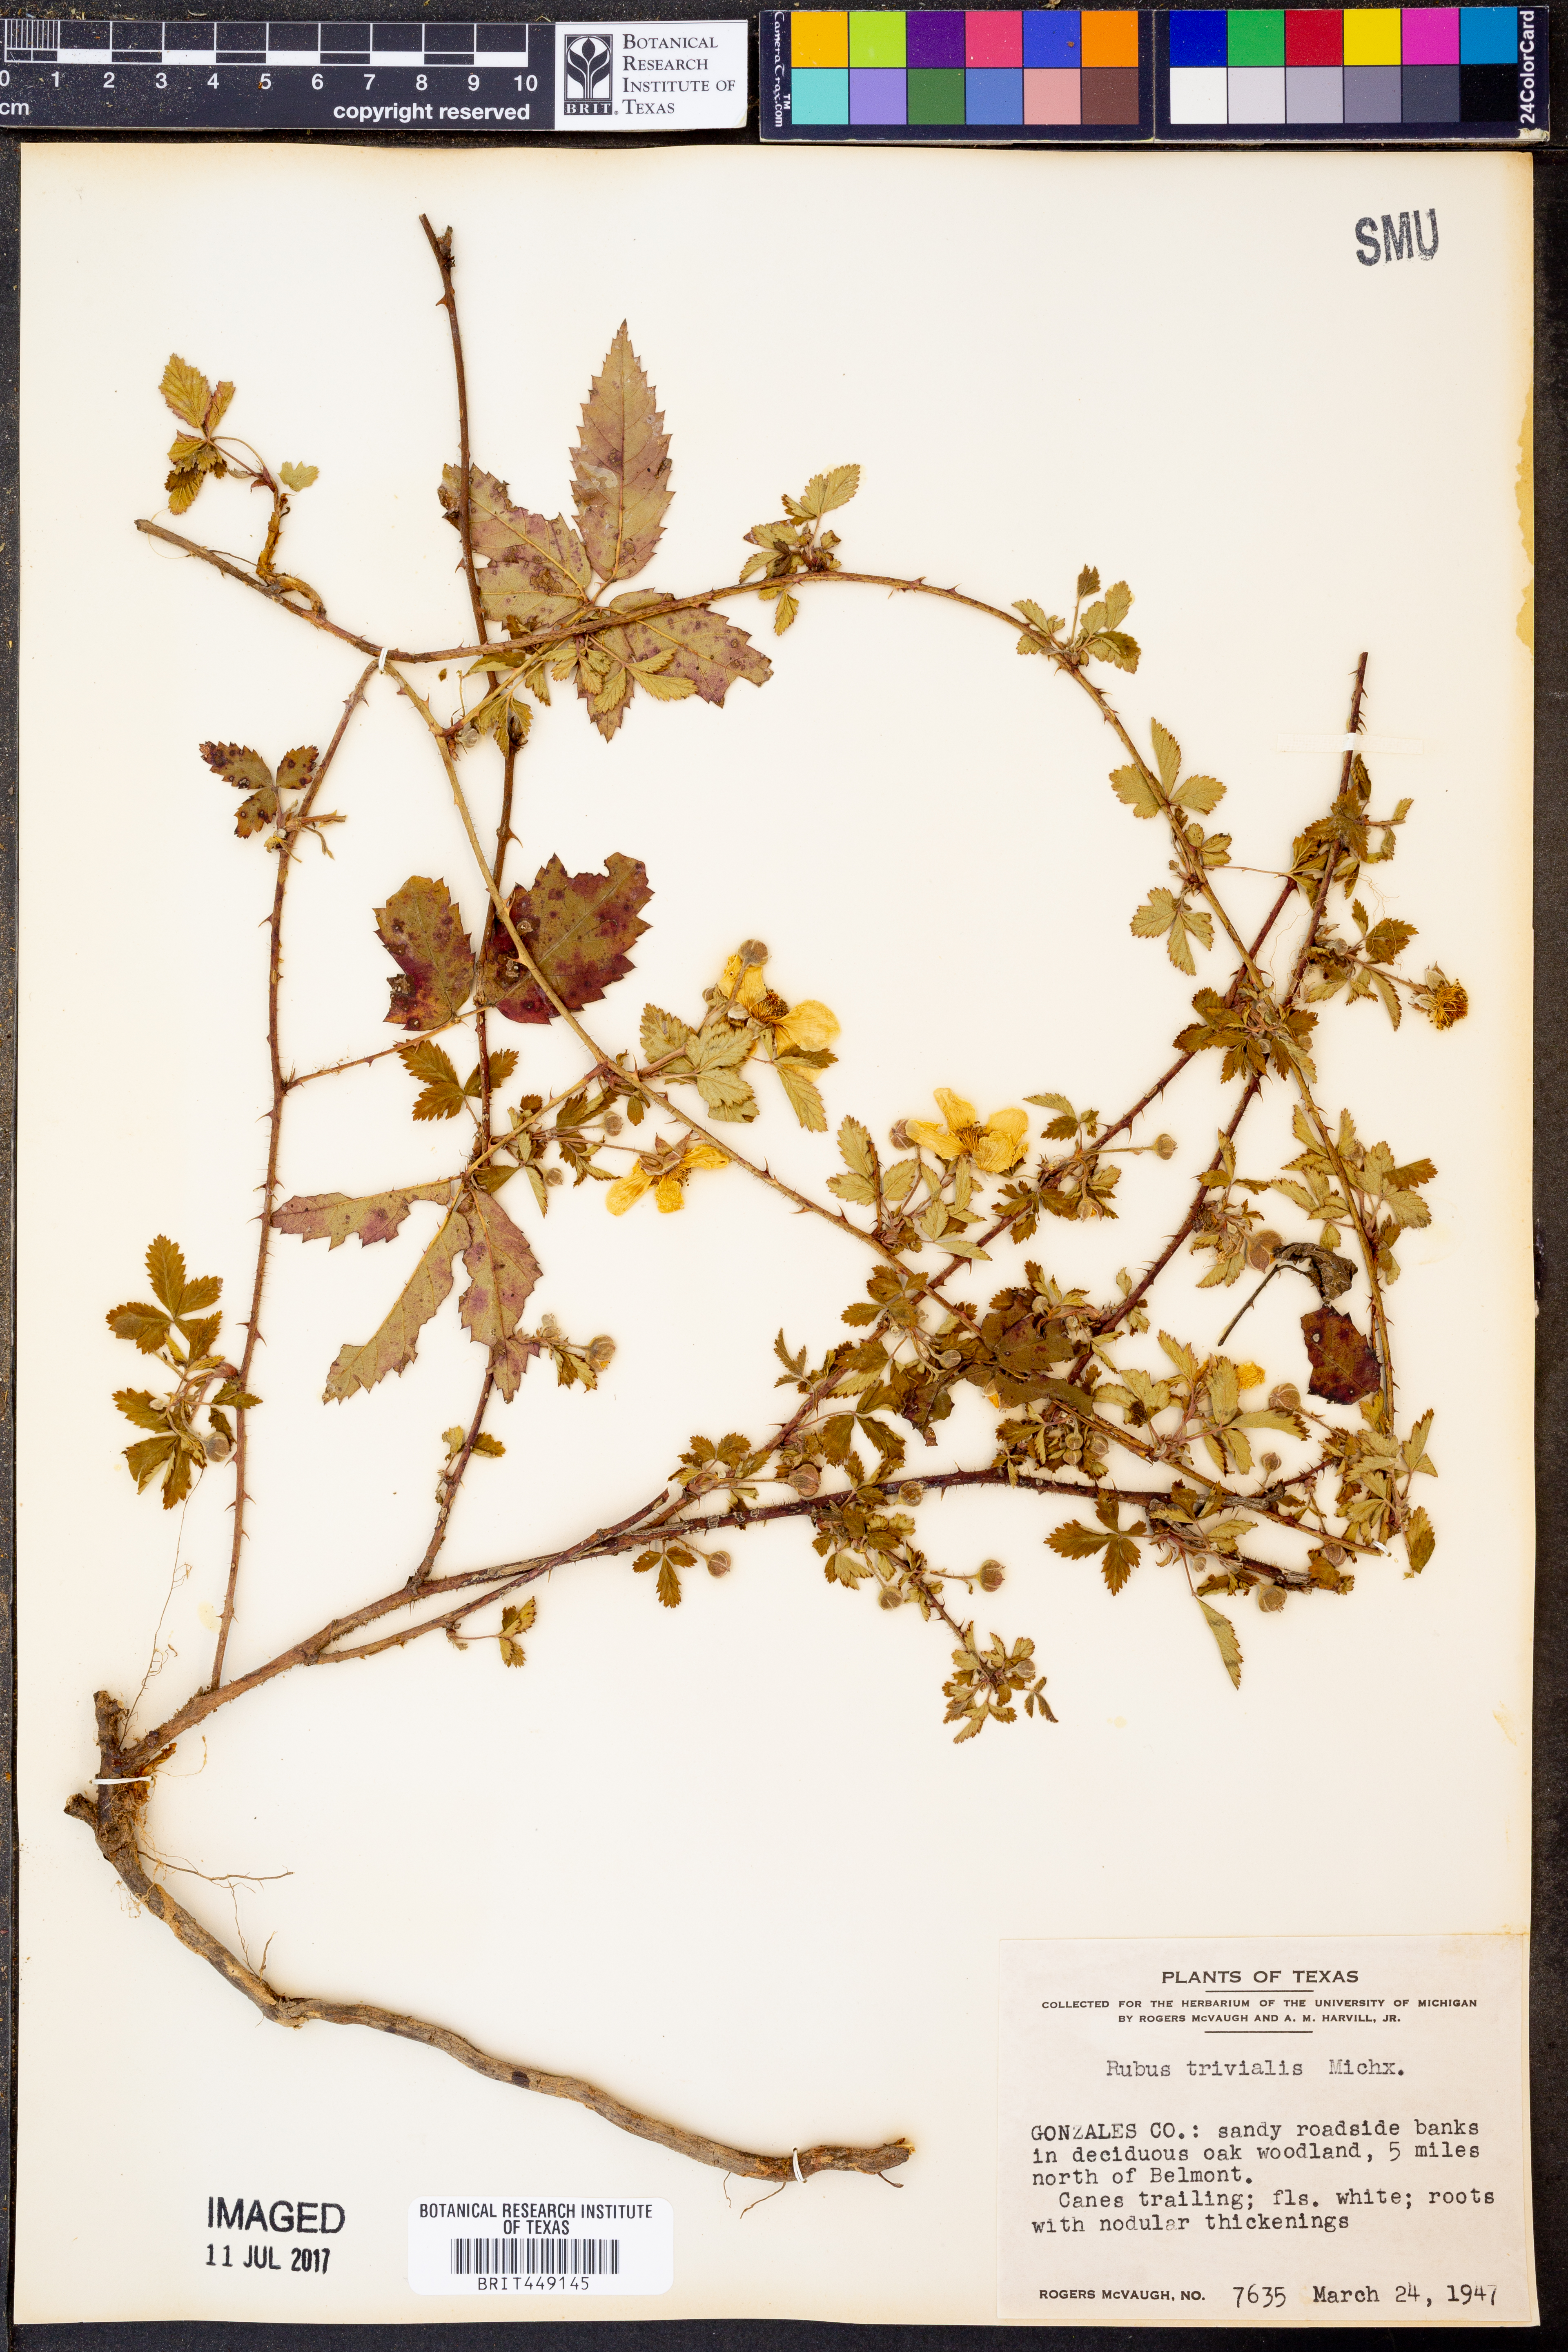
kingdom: Plantae
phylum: Tracheophyta
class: Magnoliopsida
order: Rosales
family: Rosaceae
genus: Rubus
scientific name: Rubus trivialis
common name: Southern dewberry
